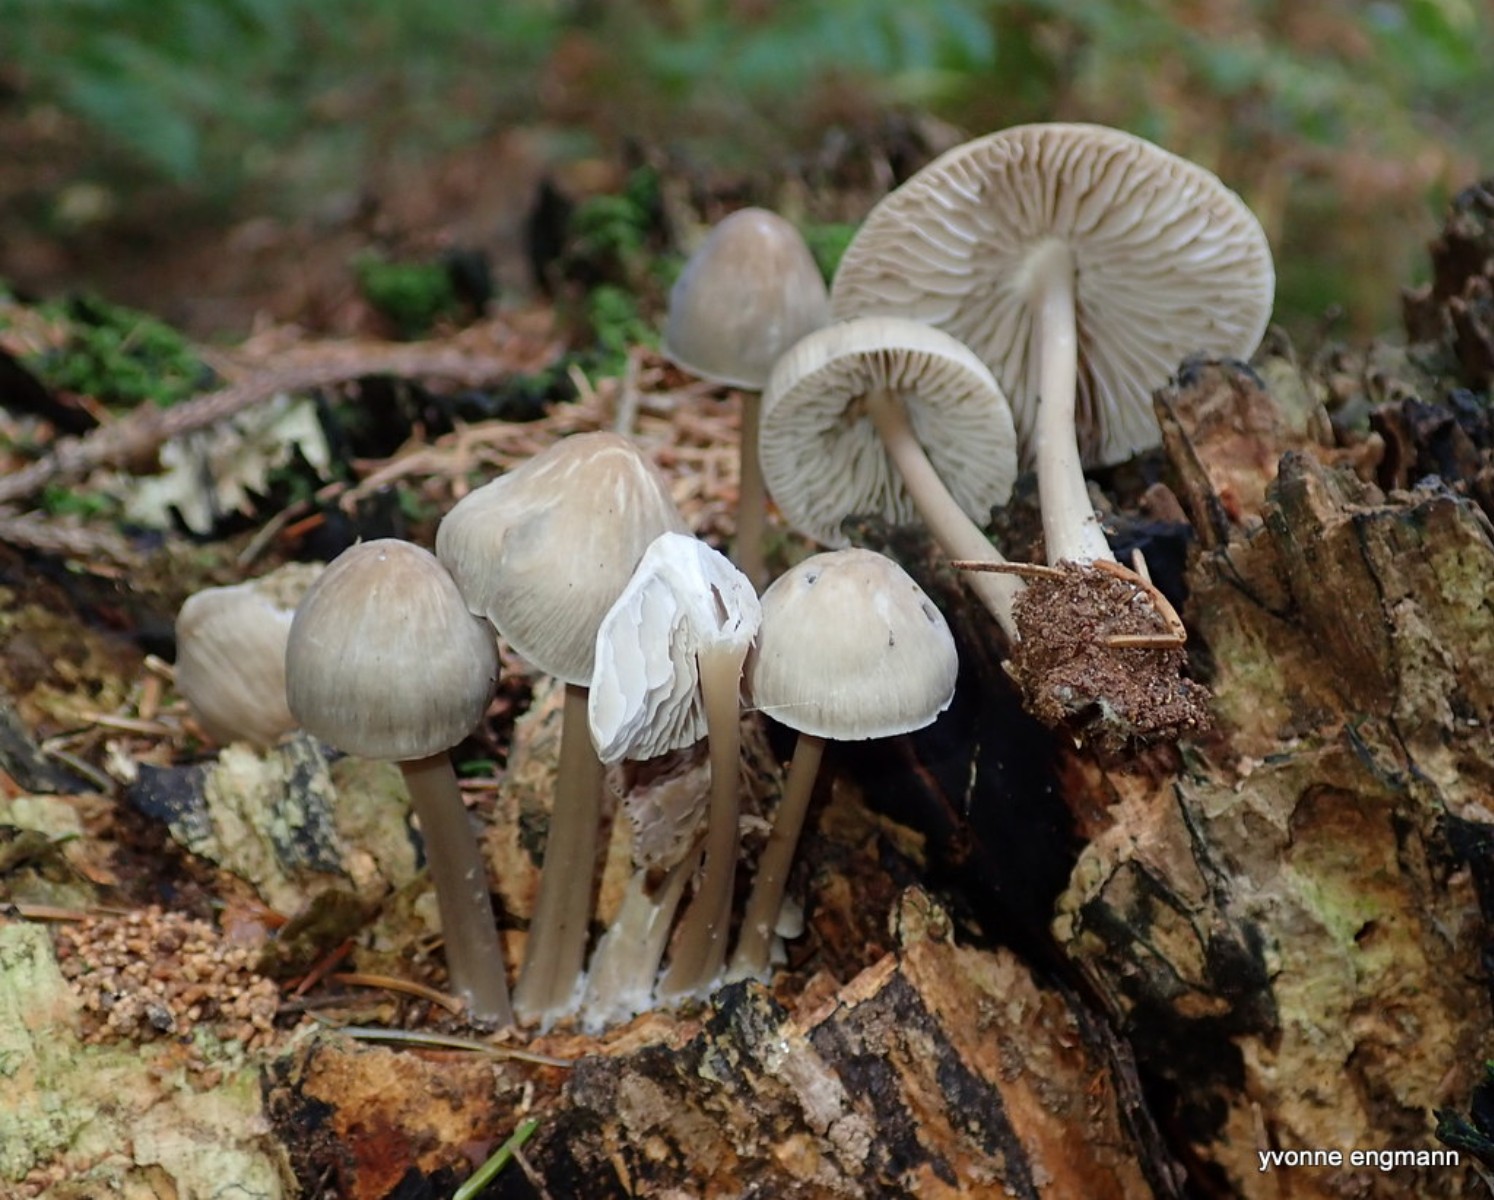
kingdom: Fungi
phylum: Basidiomycota
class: Agaricomycetes
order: Agaricales
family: Mycenaceae
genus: Mycena
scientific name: Mycena galericulata
